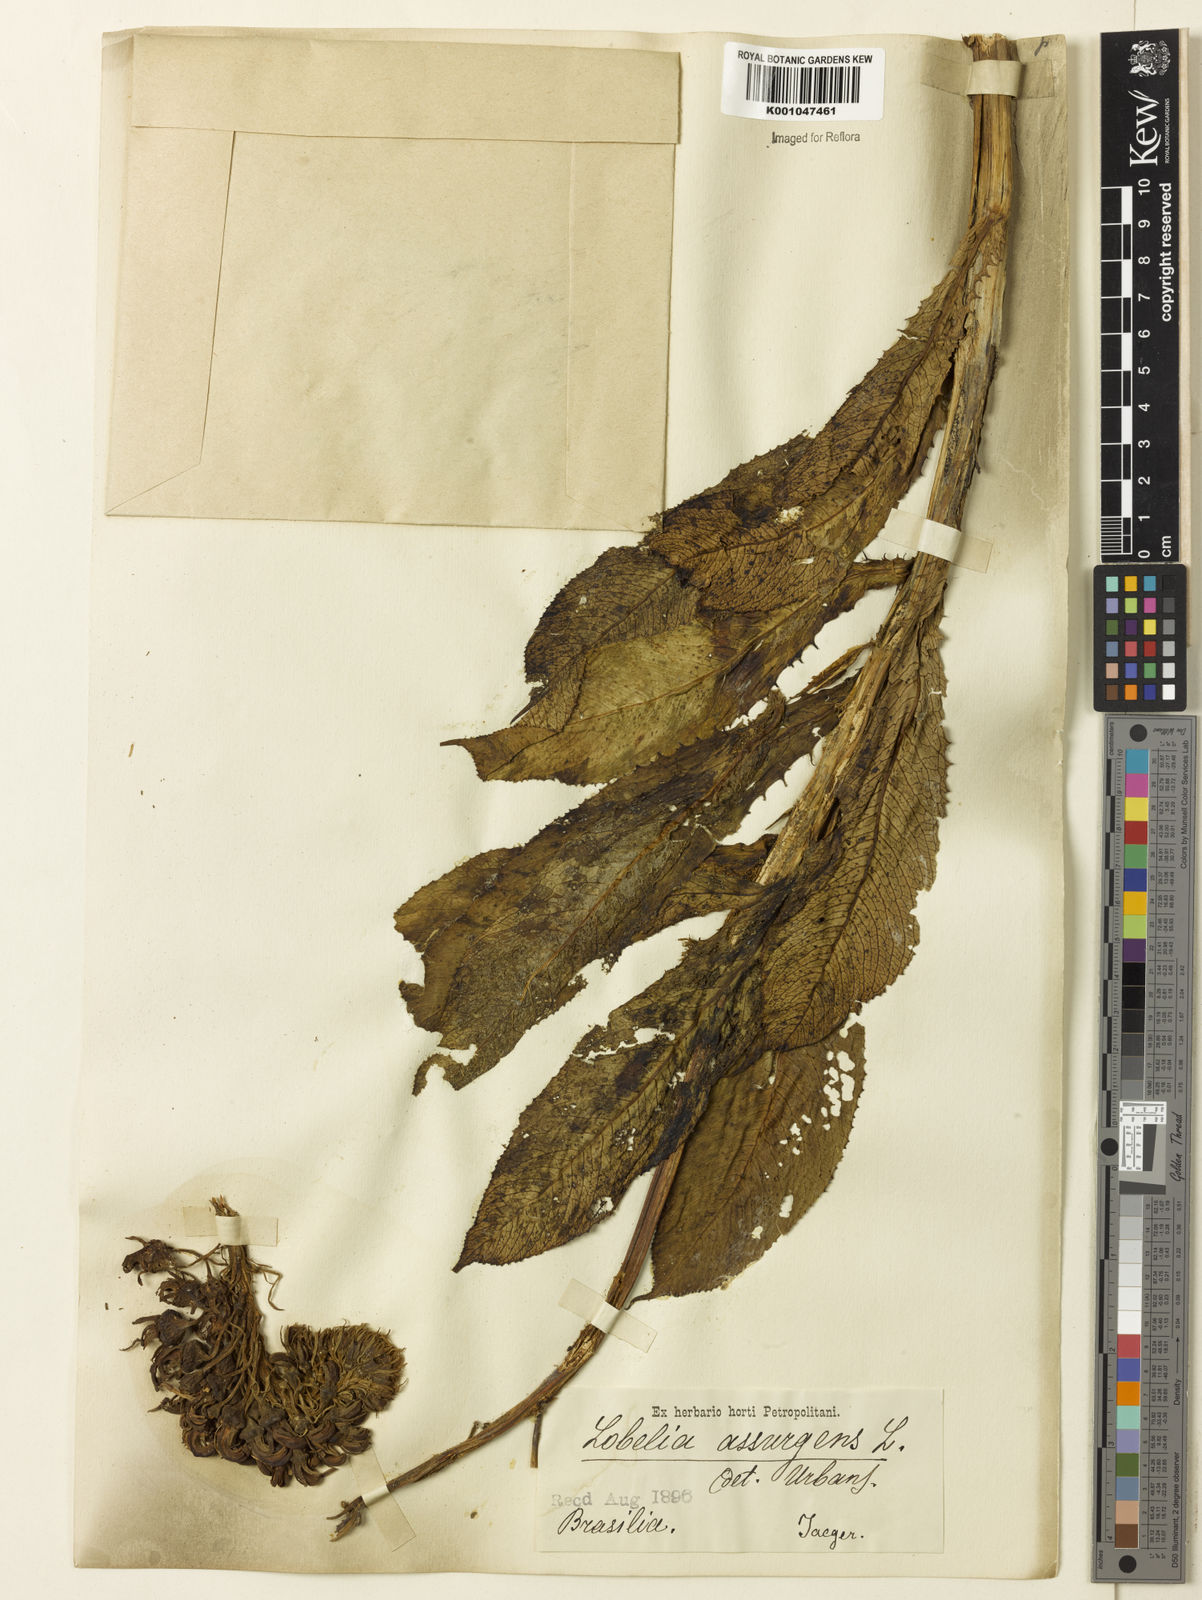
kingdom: Plantae
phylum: Tracheophyta
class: Magnoliopsida
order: Asterales
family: Campanulaceae
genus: Lobelia
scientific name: Lobelia assurgens
